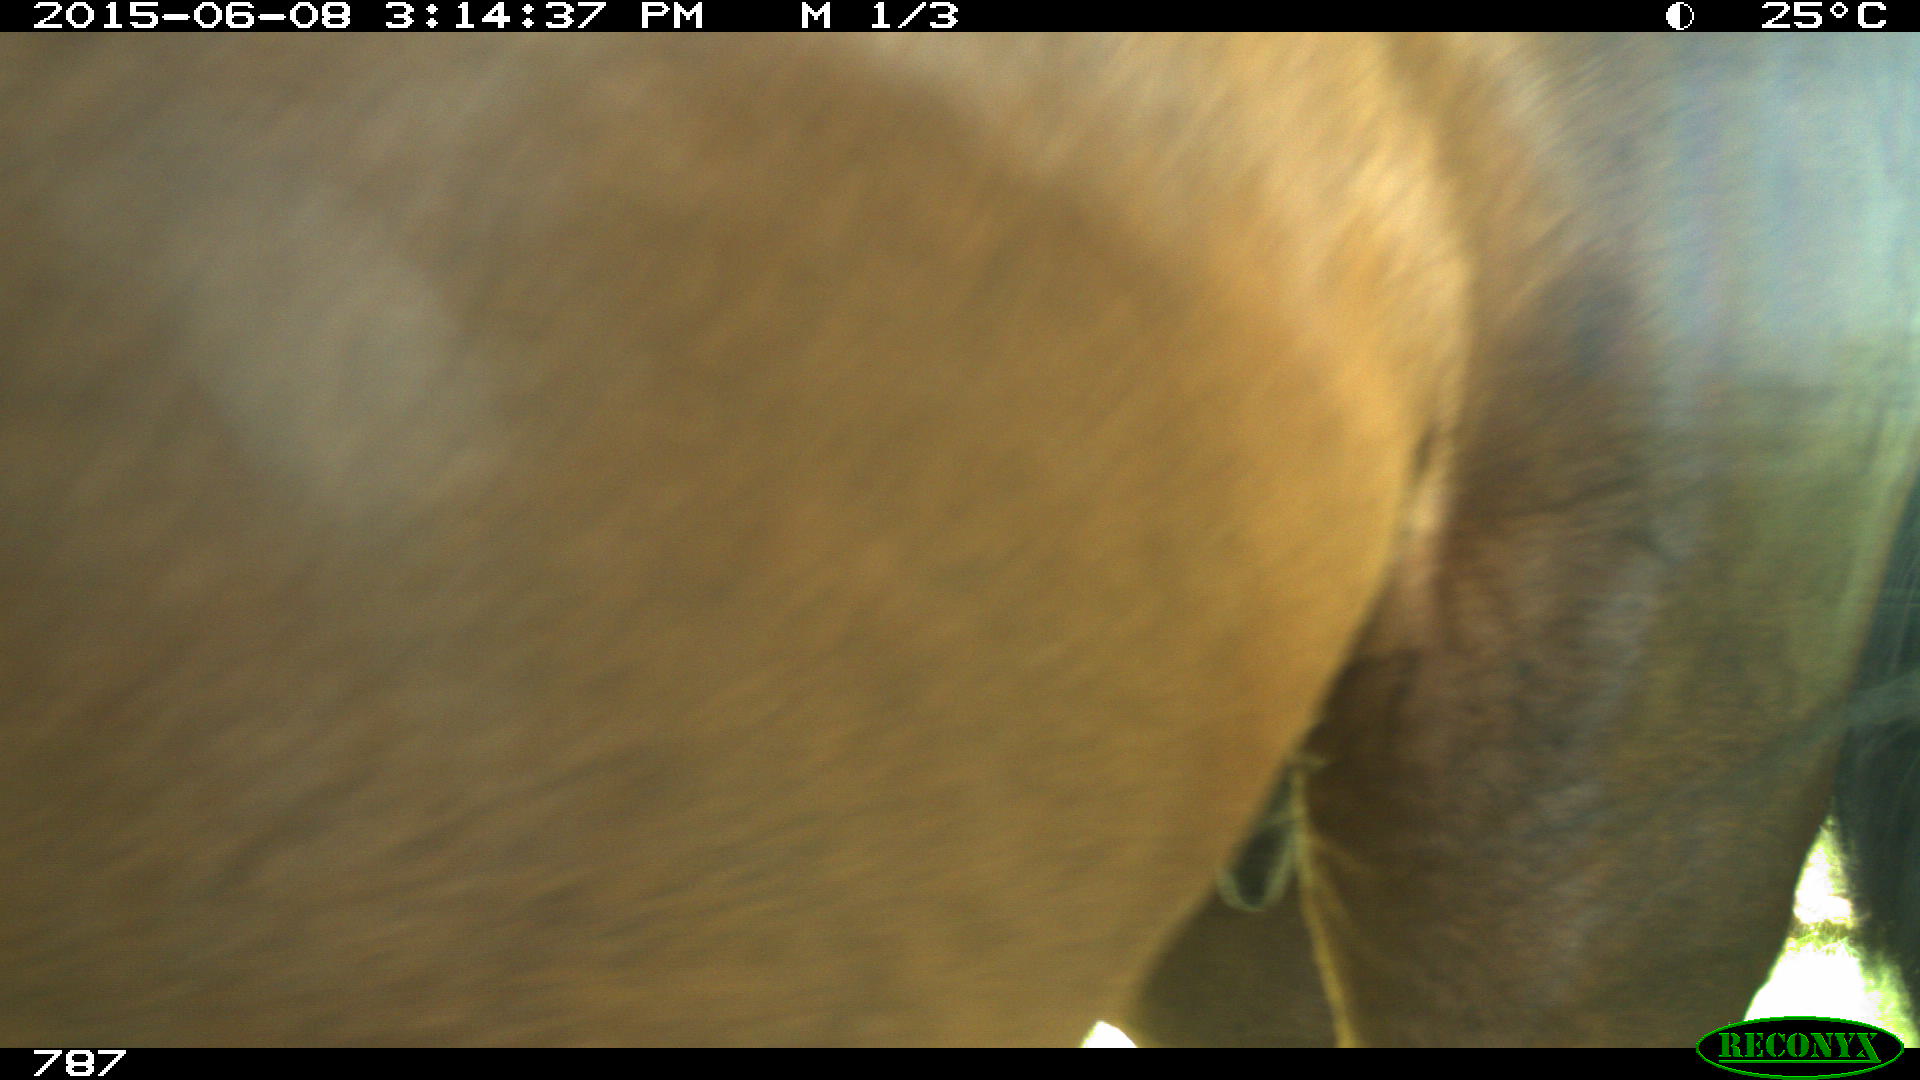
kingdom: Animalia
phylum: Chordata
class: Mammalia
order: Perissodactyla
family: Equidae
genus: Equus
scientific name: Equus caballus
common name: Horse
